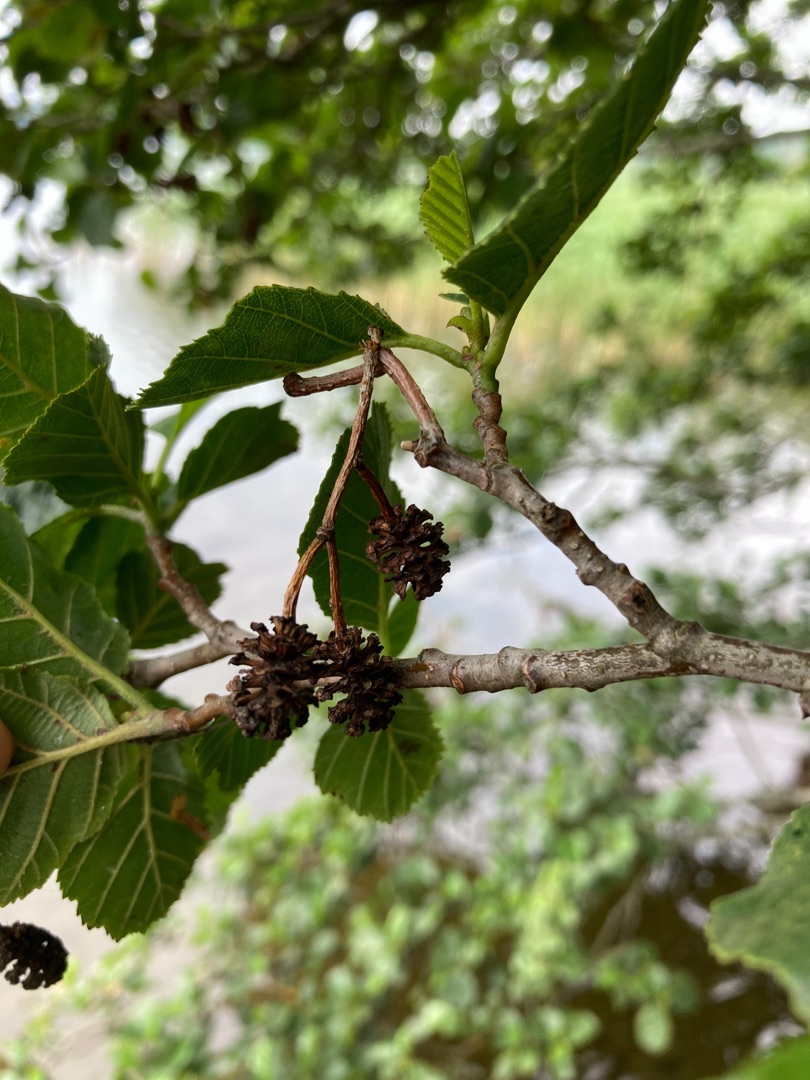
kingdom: Plantae
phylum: Tracheophyta
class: Magnoliopsida
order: Fagales
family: Betulaceae
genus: Alnus
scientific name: Alnus glutinosa
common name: Rød-el
